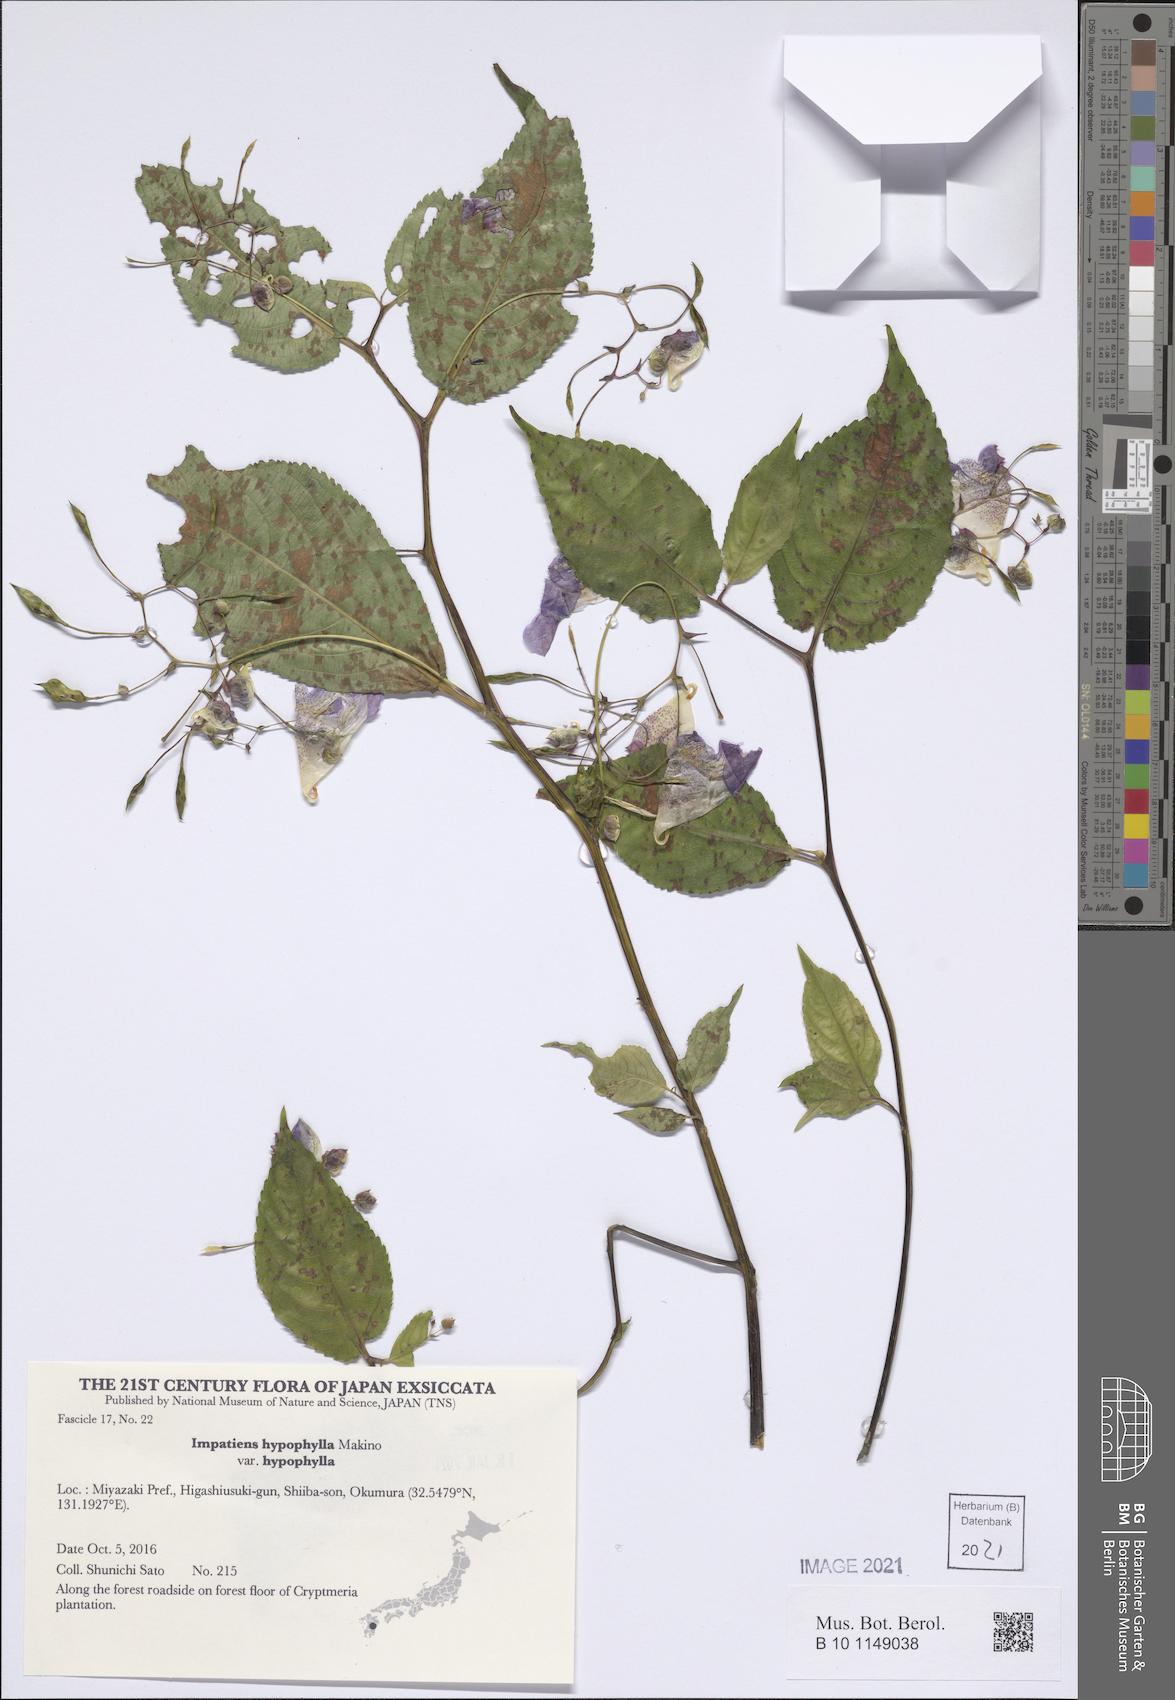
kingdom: Plantae
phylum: Tracheophyta
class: Magnoliopsida
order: Ericales
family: Balsaminaceae
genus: Impatiens
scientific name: Impatiens hypophylla
